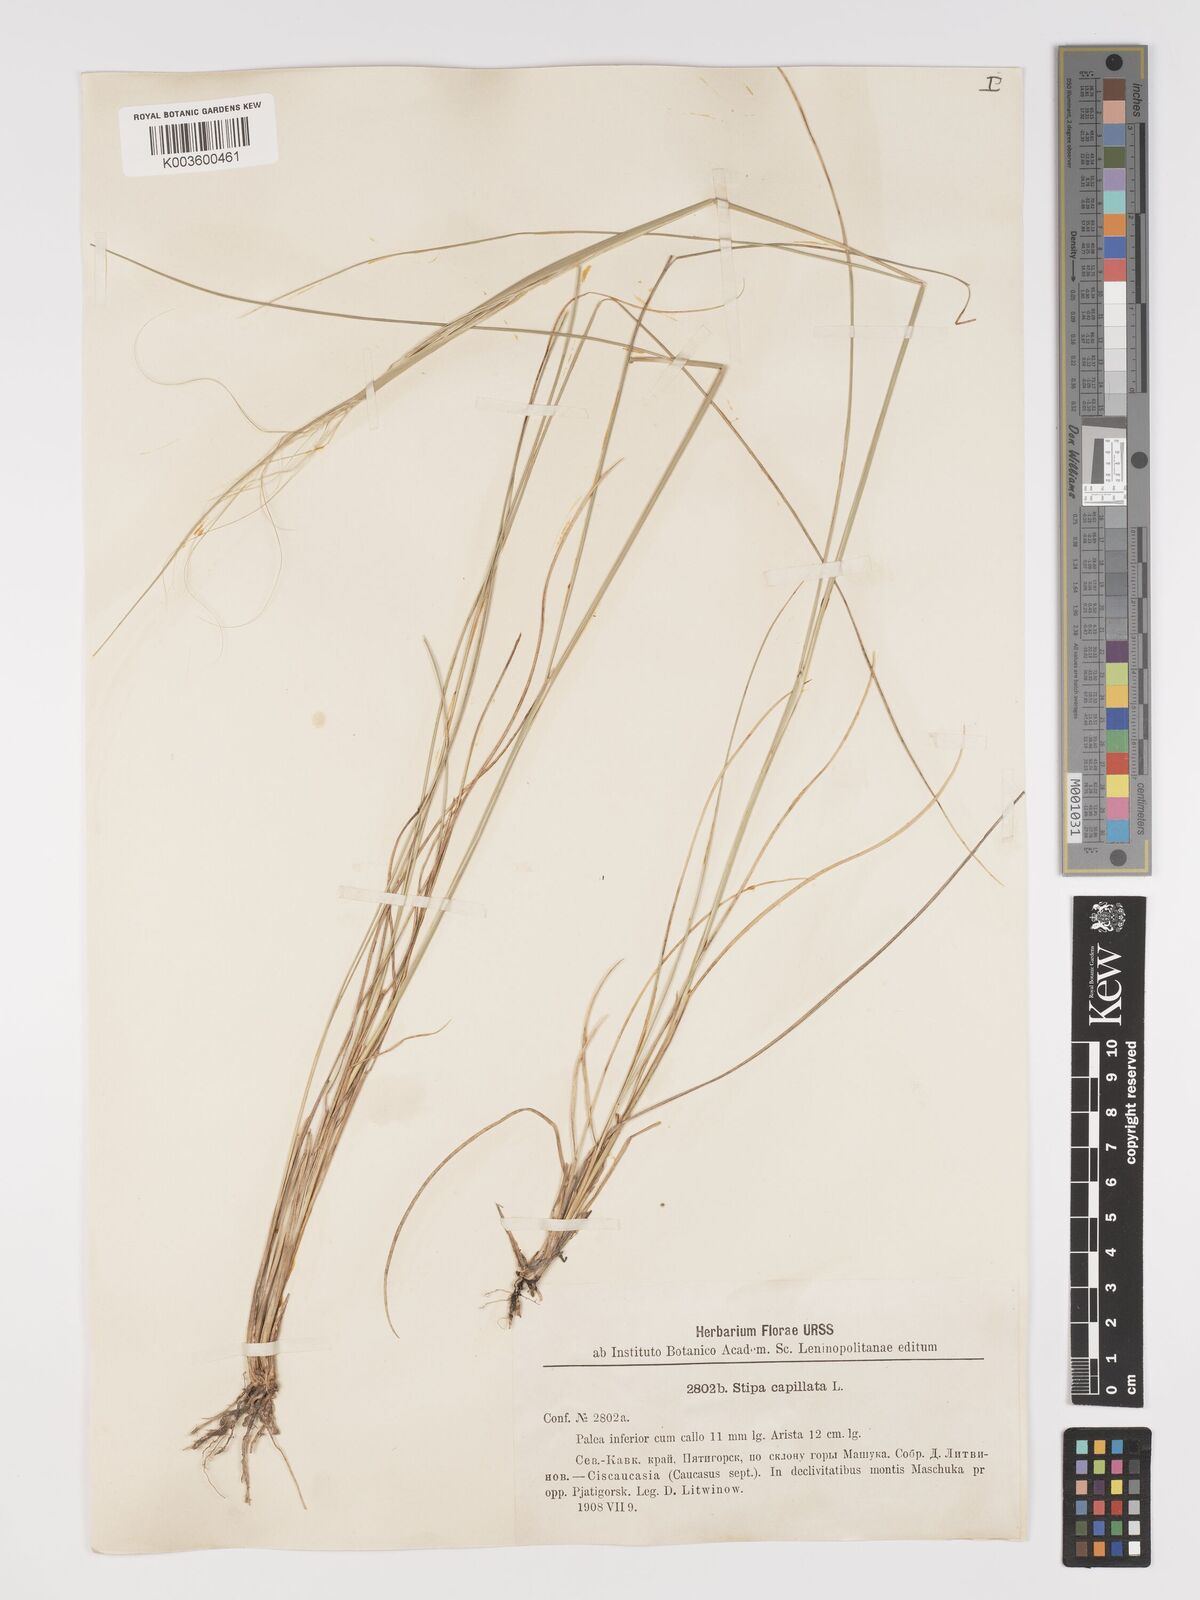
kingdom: Plantae
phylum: Tracheophyta
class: Liliopsida
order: Poales
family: Poaceae
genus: Stipa
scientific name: Stipa capillata
